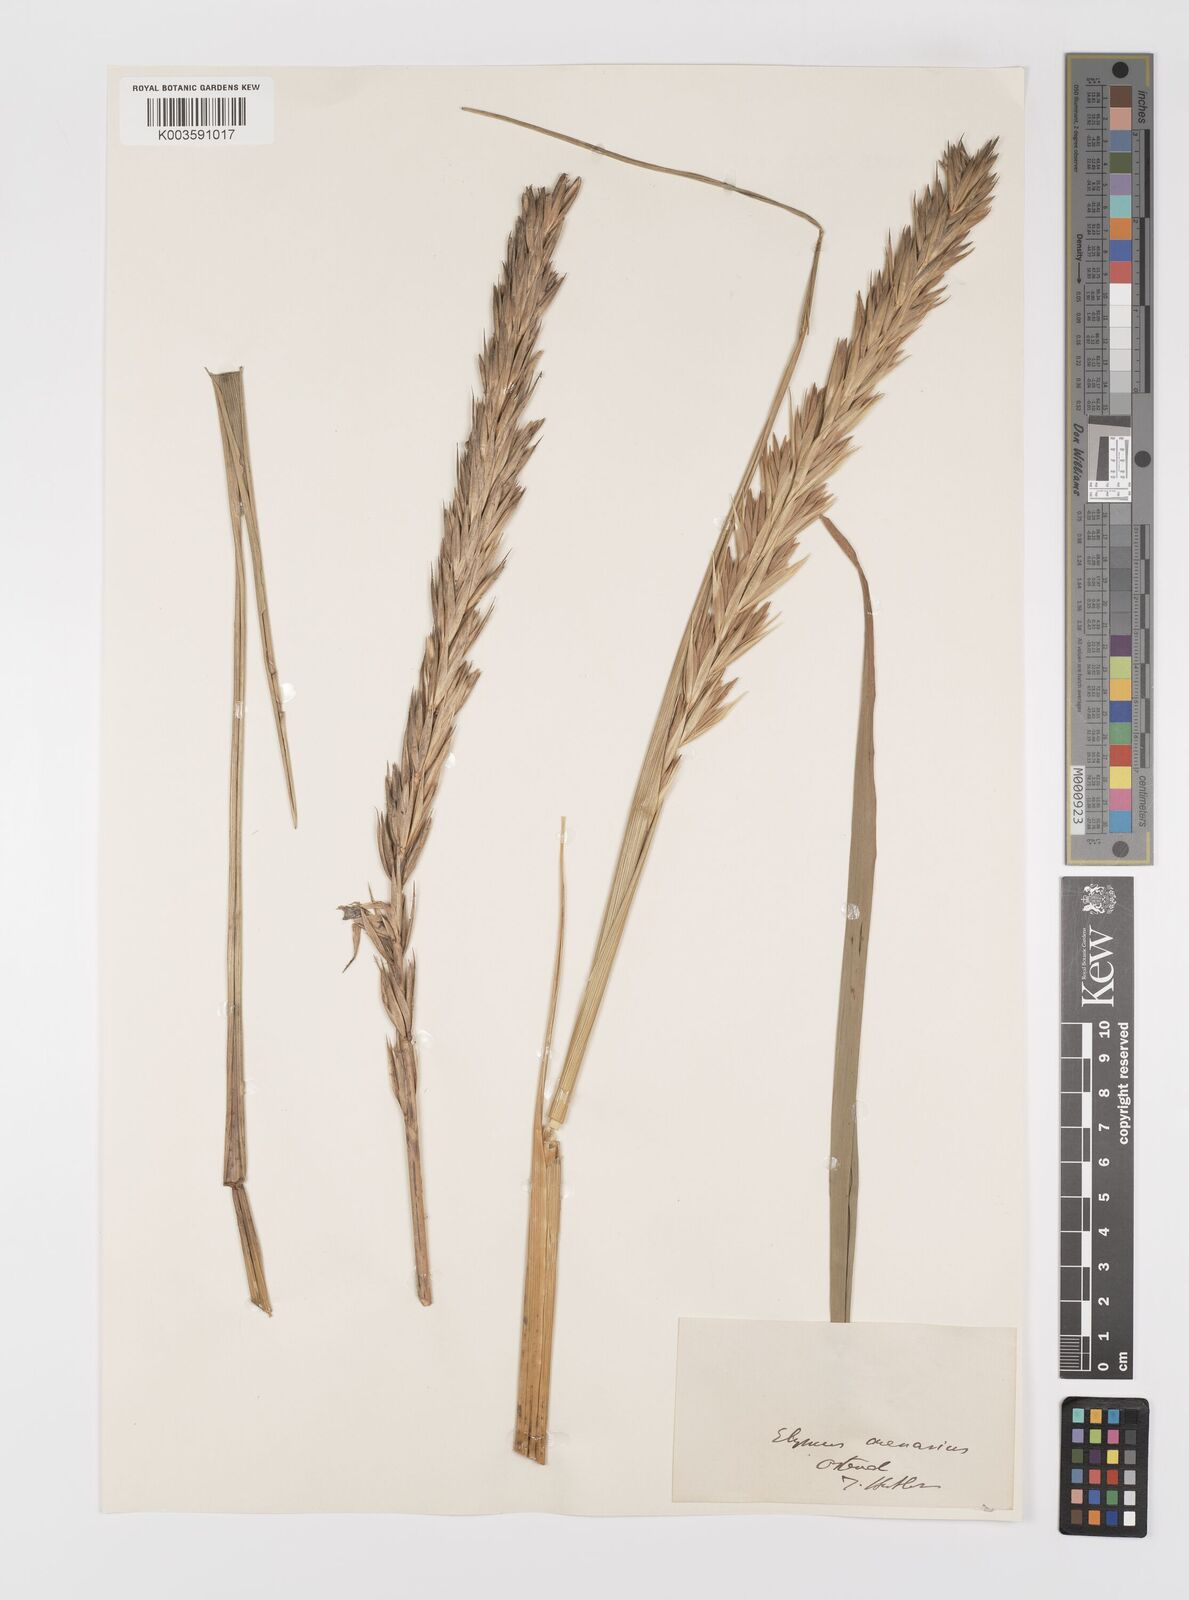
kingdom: Plantae
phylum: Tracheophyta
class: Liliopsida
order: Poales
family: Poaceae
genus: Leymus
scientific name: Leymus arenarius
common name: Lyme-grass
